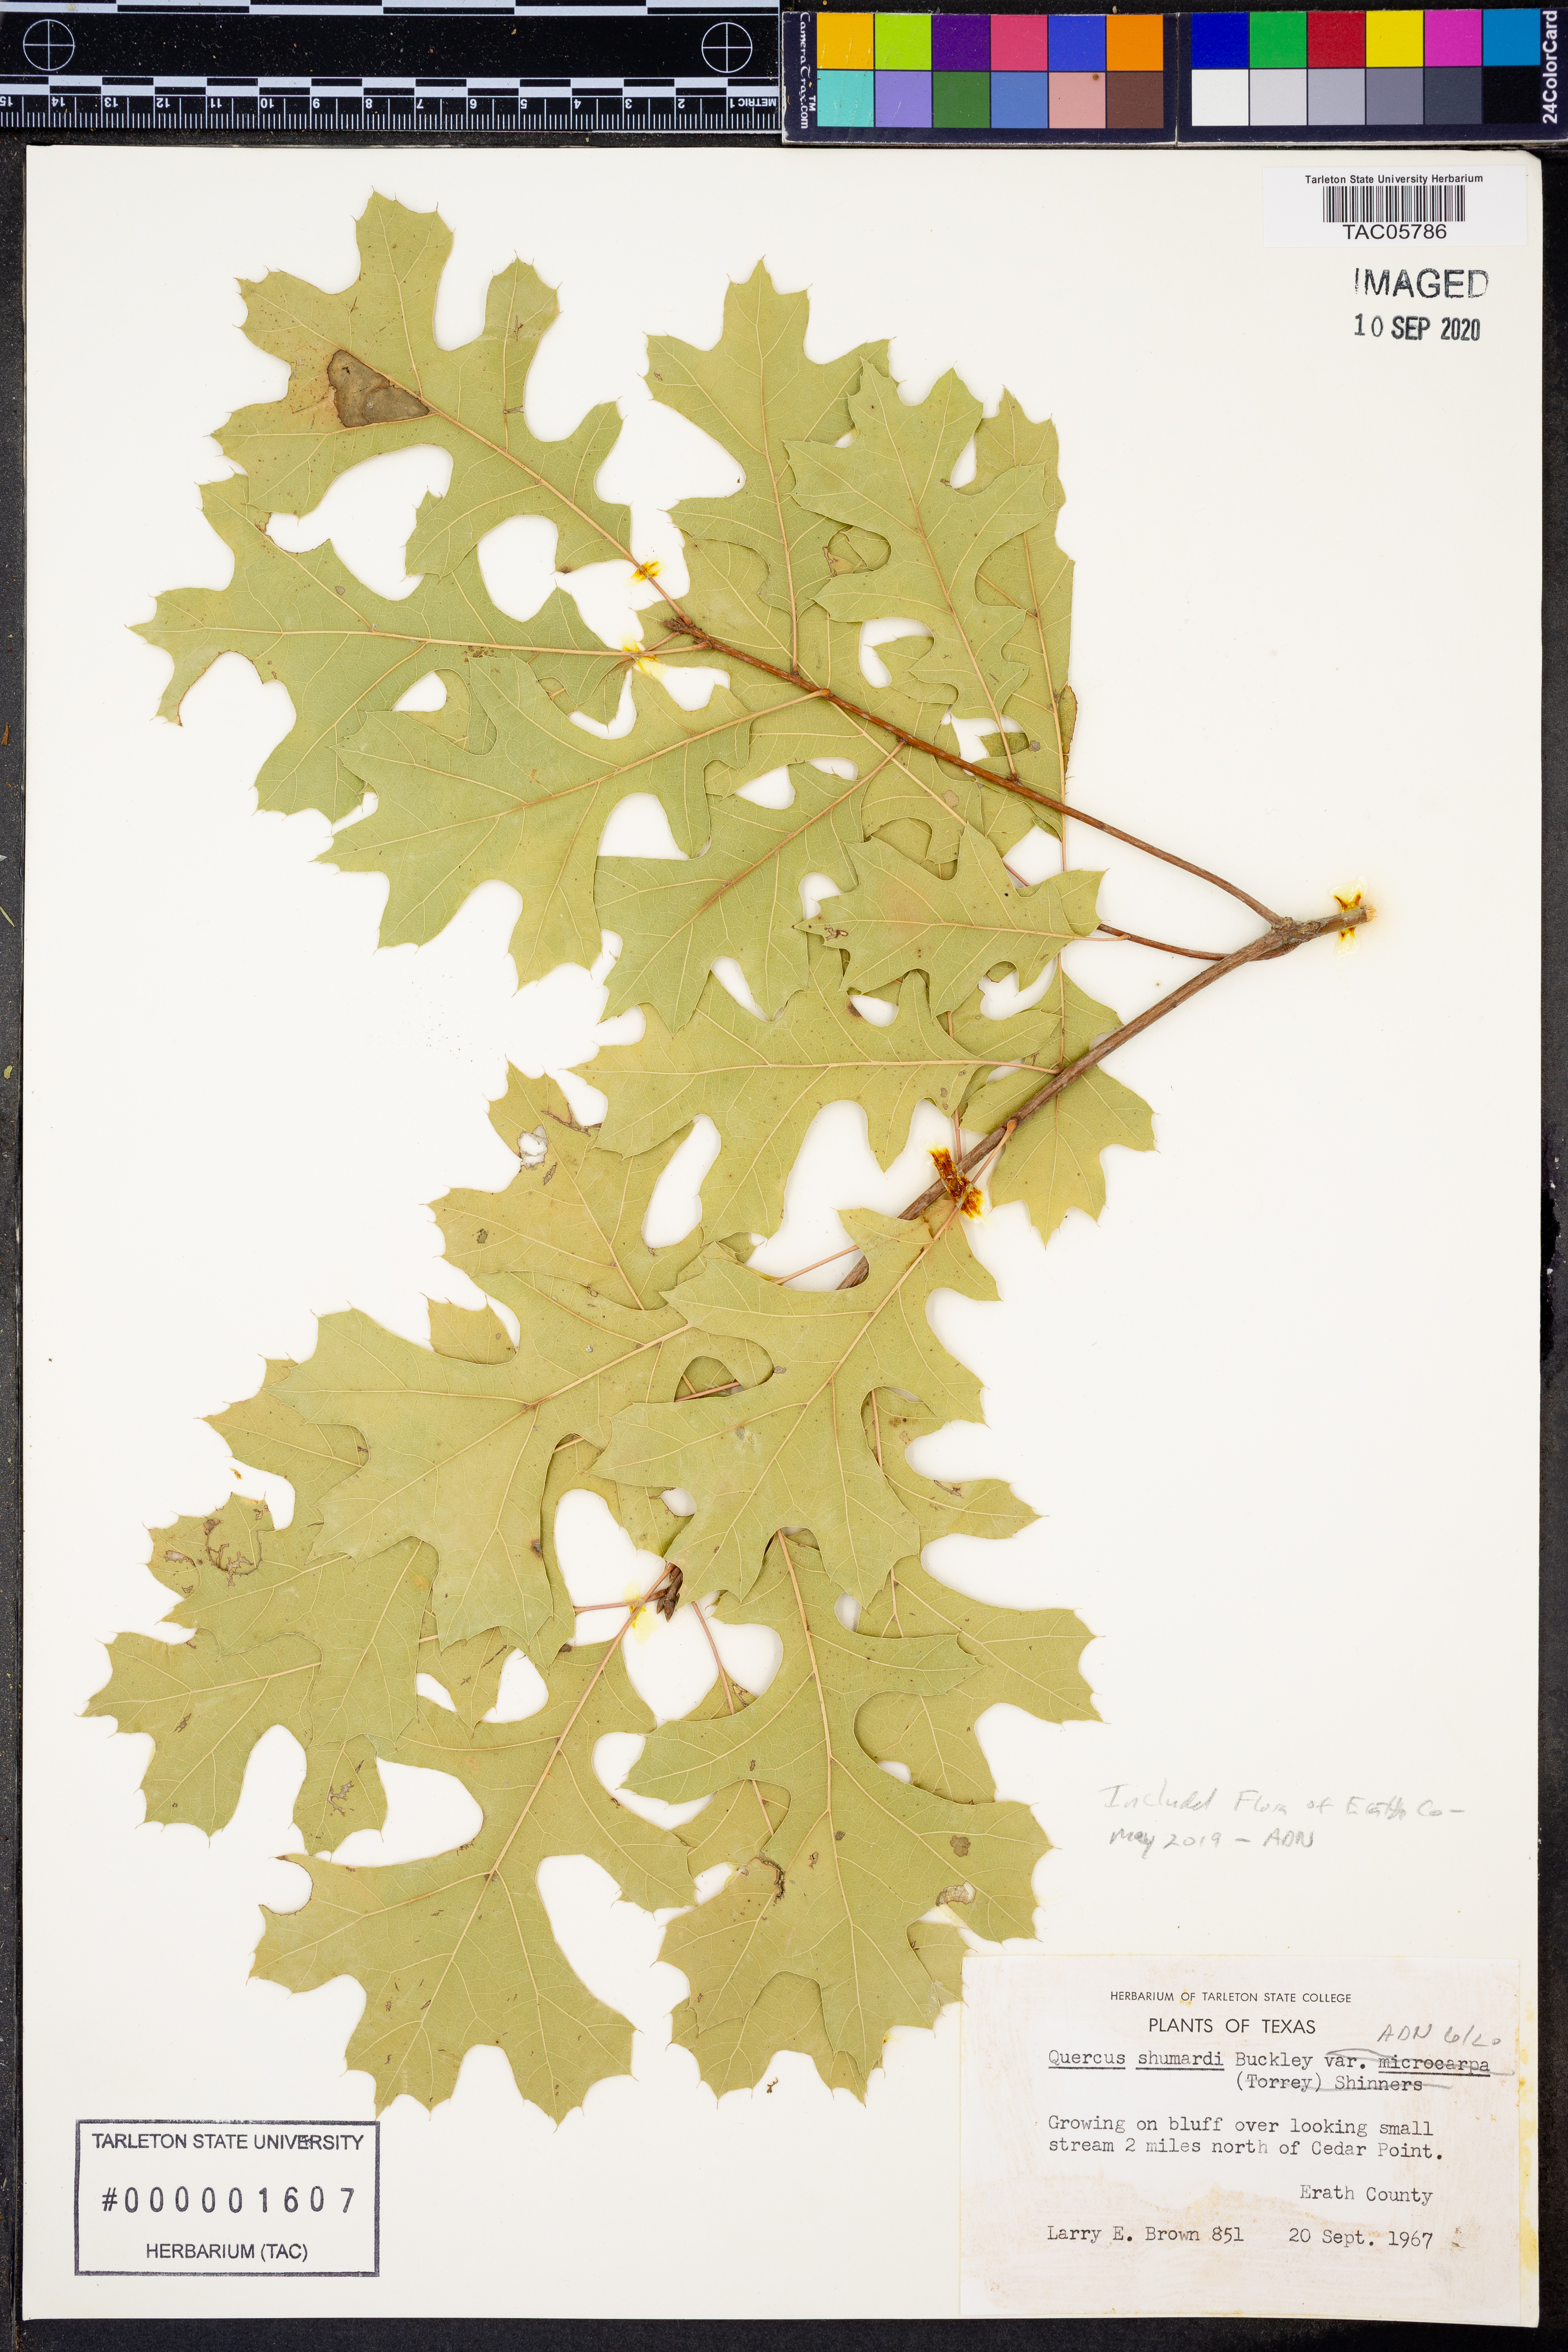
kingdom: Plantae
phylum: Tracheophyta
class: Magnoliopsida
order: Fagales
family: Fagaceae
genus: Quercus
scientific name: Quercus shumardii
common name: Shumard oak
